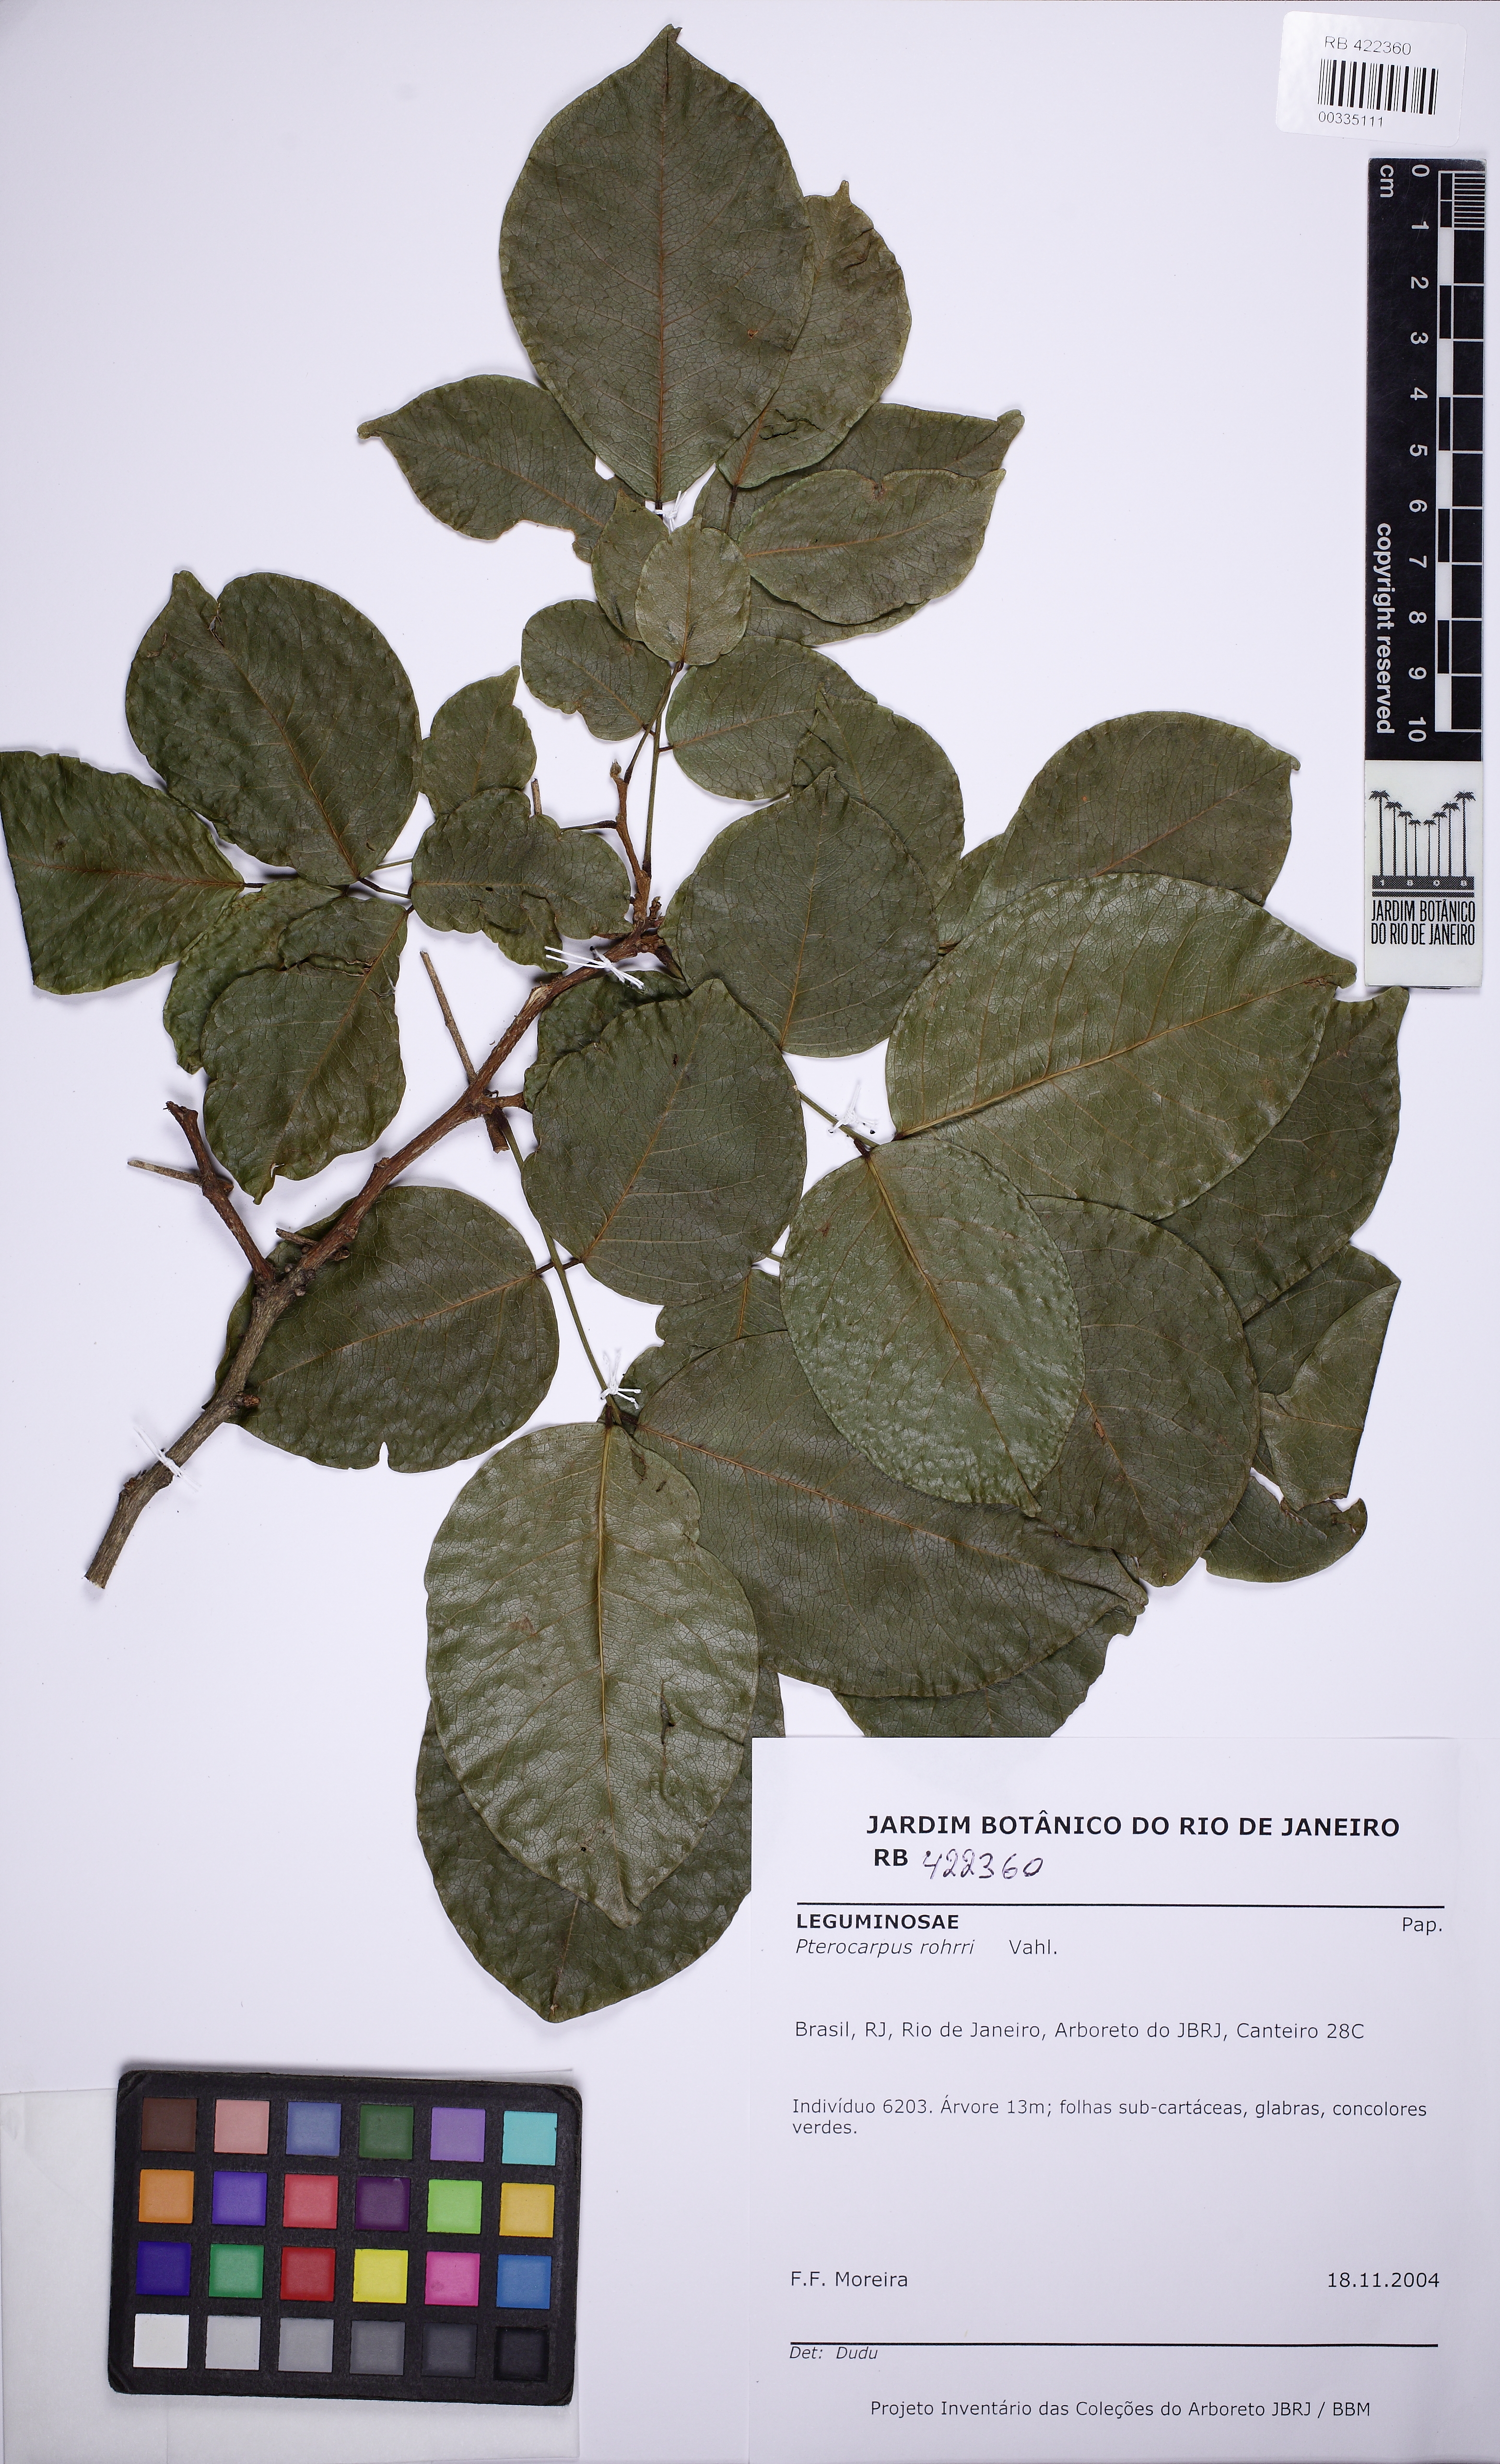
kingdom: Plantae
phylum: Tracheophyta
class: Magnoliopsida
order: Fabales
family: Fabaceae
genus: Pterocarpus
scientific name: Pterocarpus rohrii
